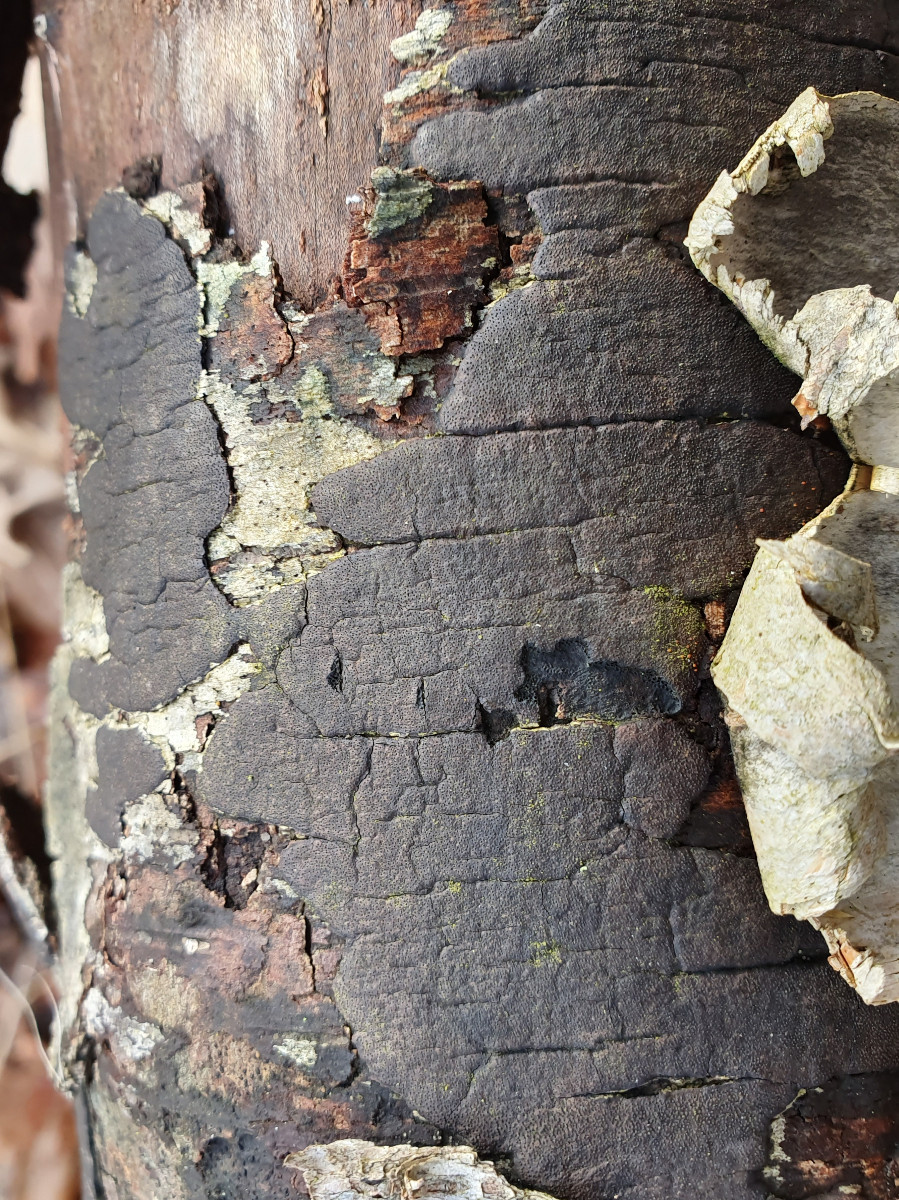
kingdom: Fungi
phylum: Ascomycota
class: Sordariomycetes
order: Xylariales
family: Diatrypaceae
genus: Diatrype
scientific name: Diatrype
